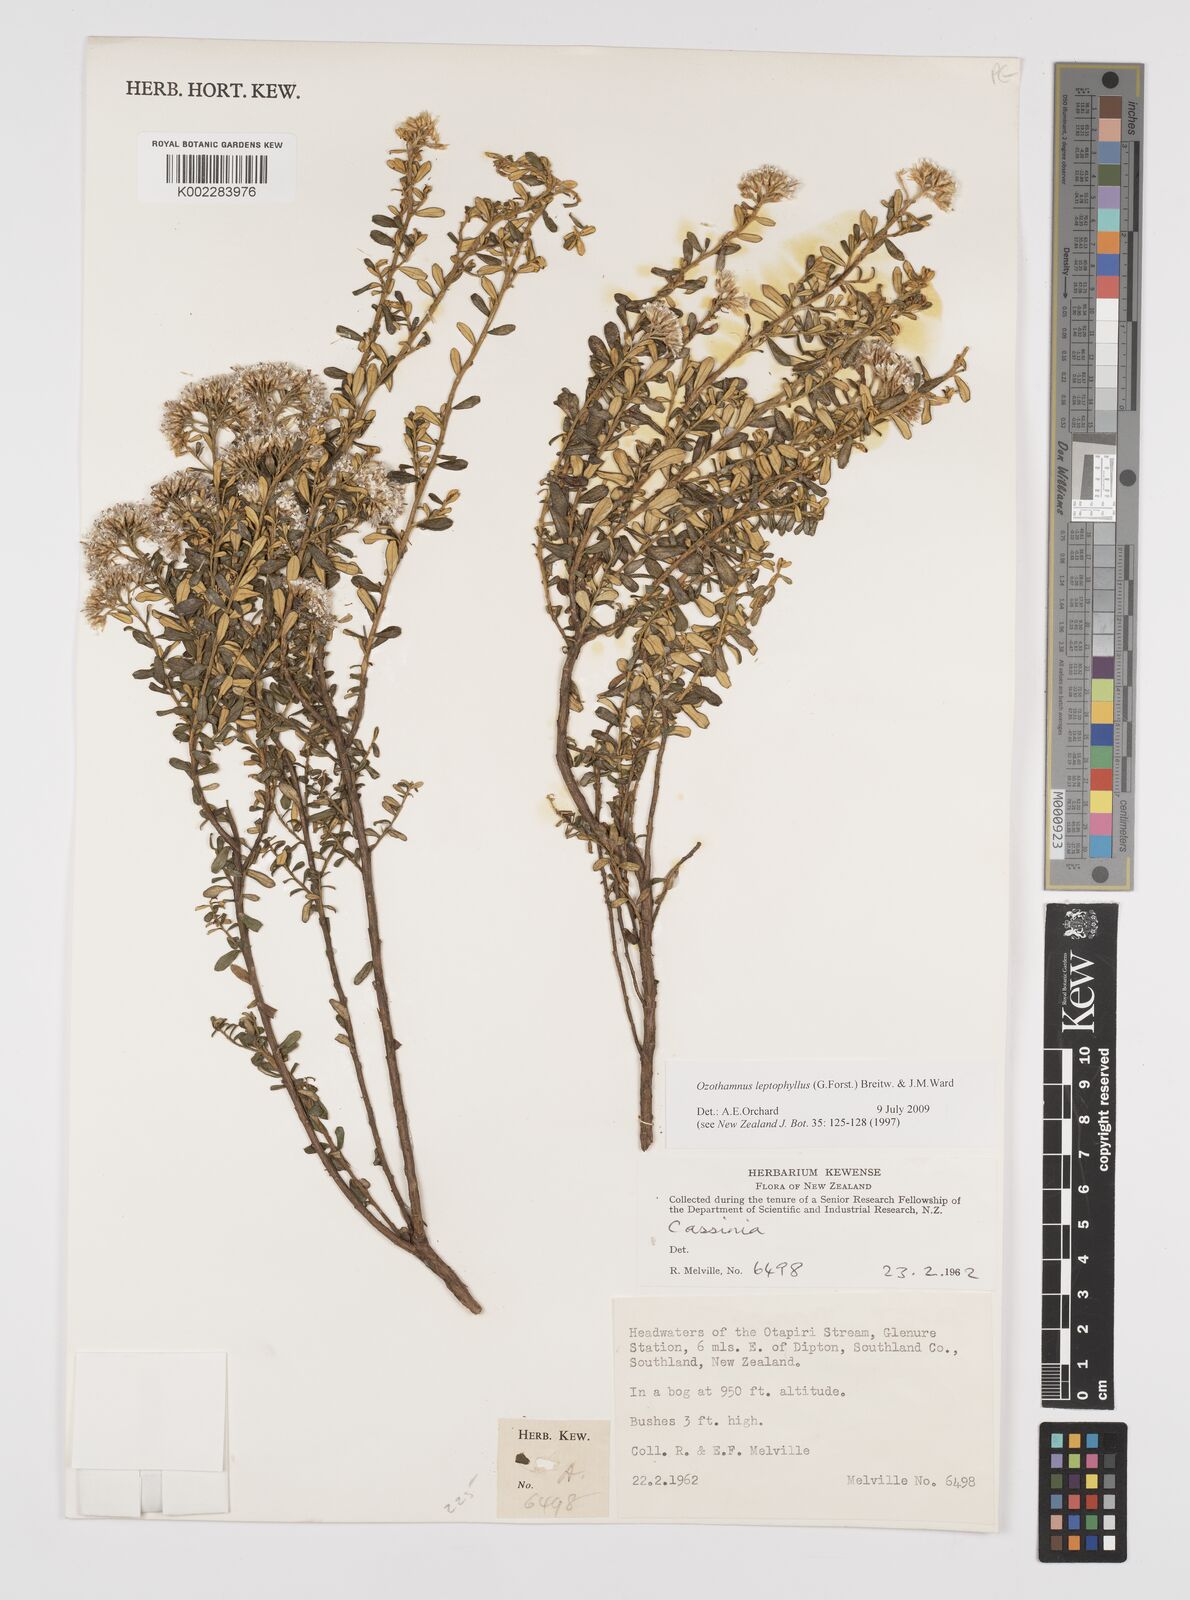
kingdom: Plantae
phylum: Tracheophyta
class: Magnoliopsida
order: Asterales
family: Asteraceae
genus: Ozothamnus
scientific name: Ozothamnus
